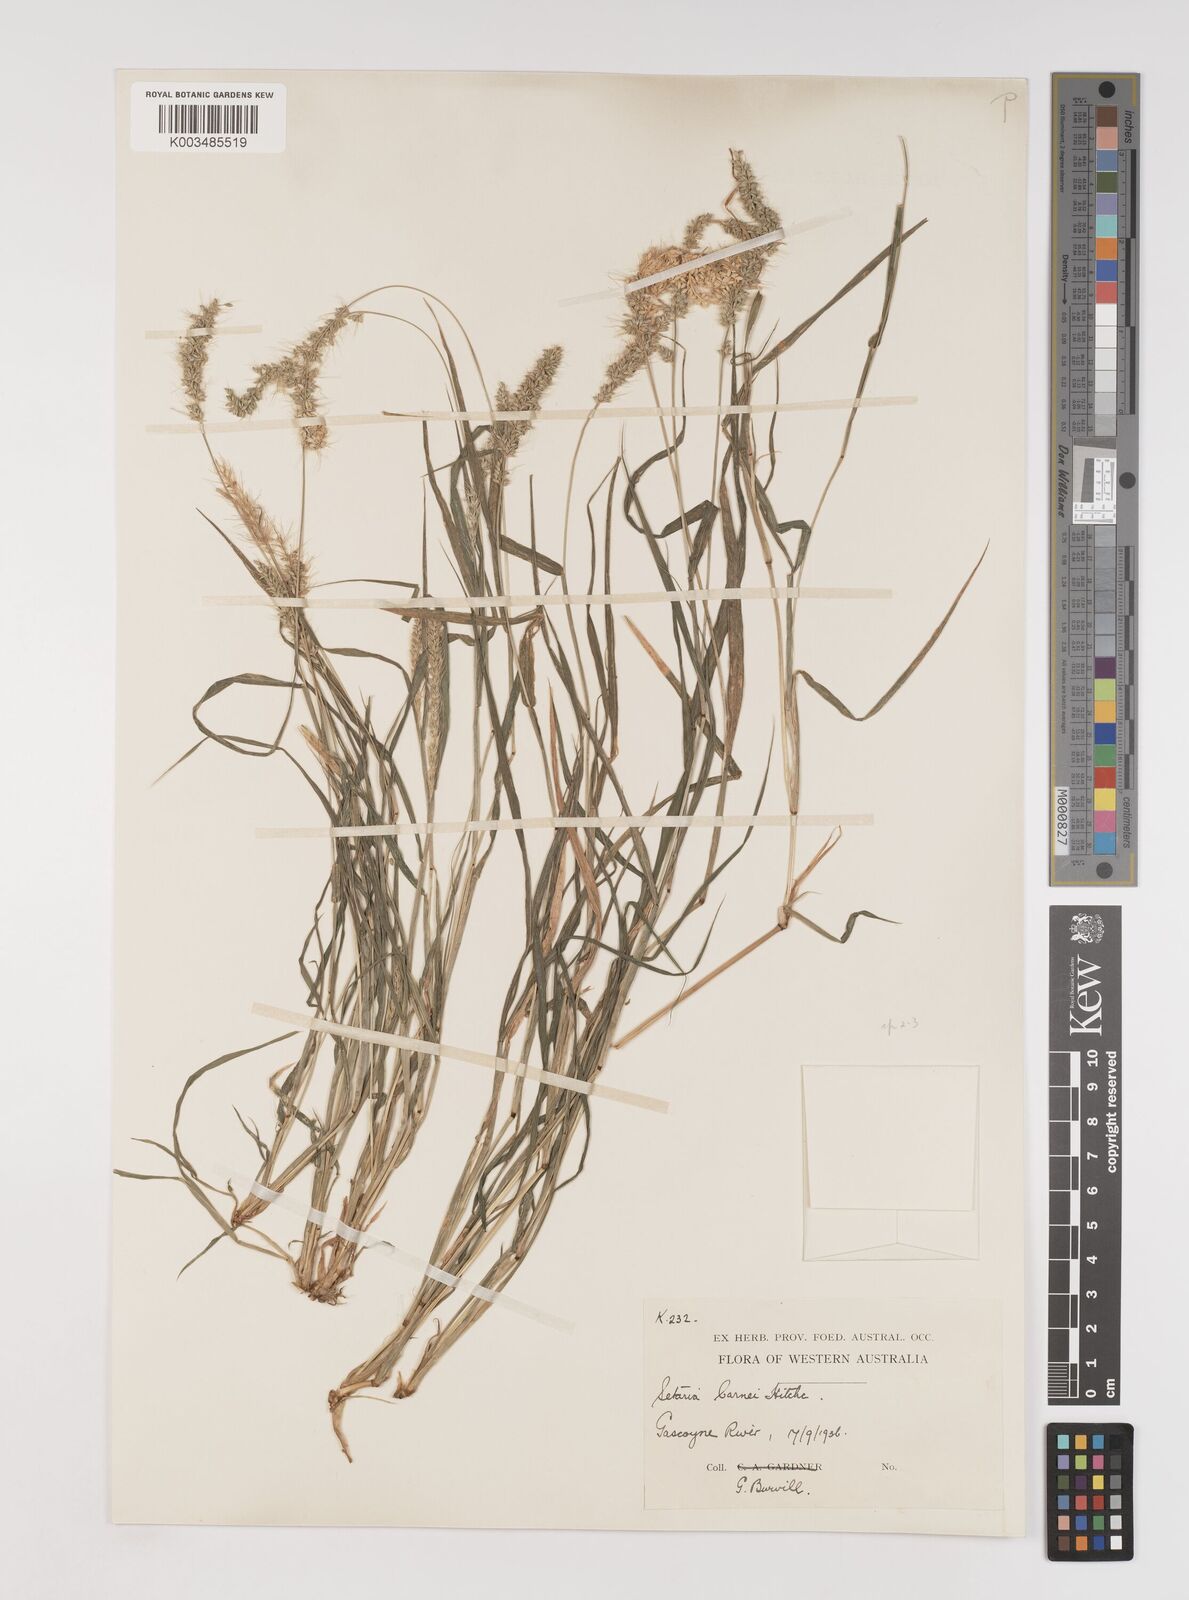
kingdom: Plantae
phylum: Tracheophyta
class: Liliopsida
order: Poales
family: Poaceae
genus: Setaria
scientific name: Setaria verticillata
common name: Hooked bristlegrass
